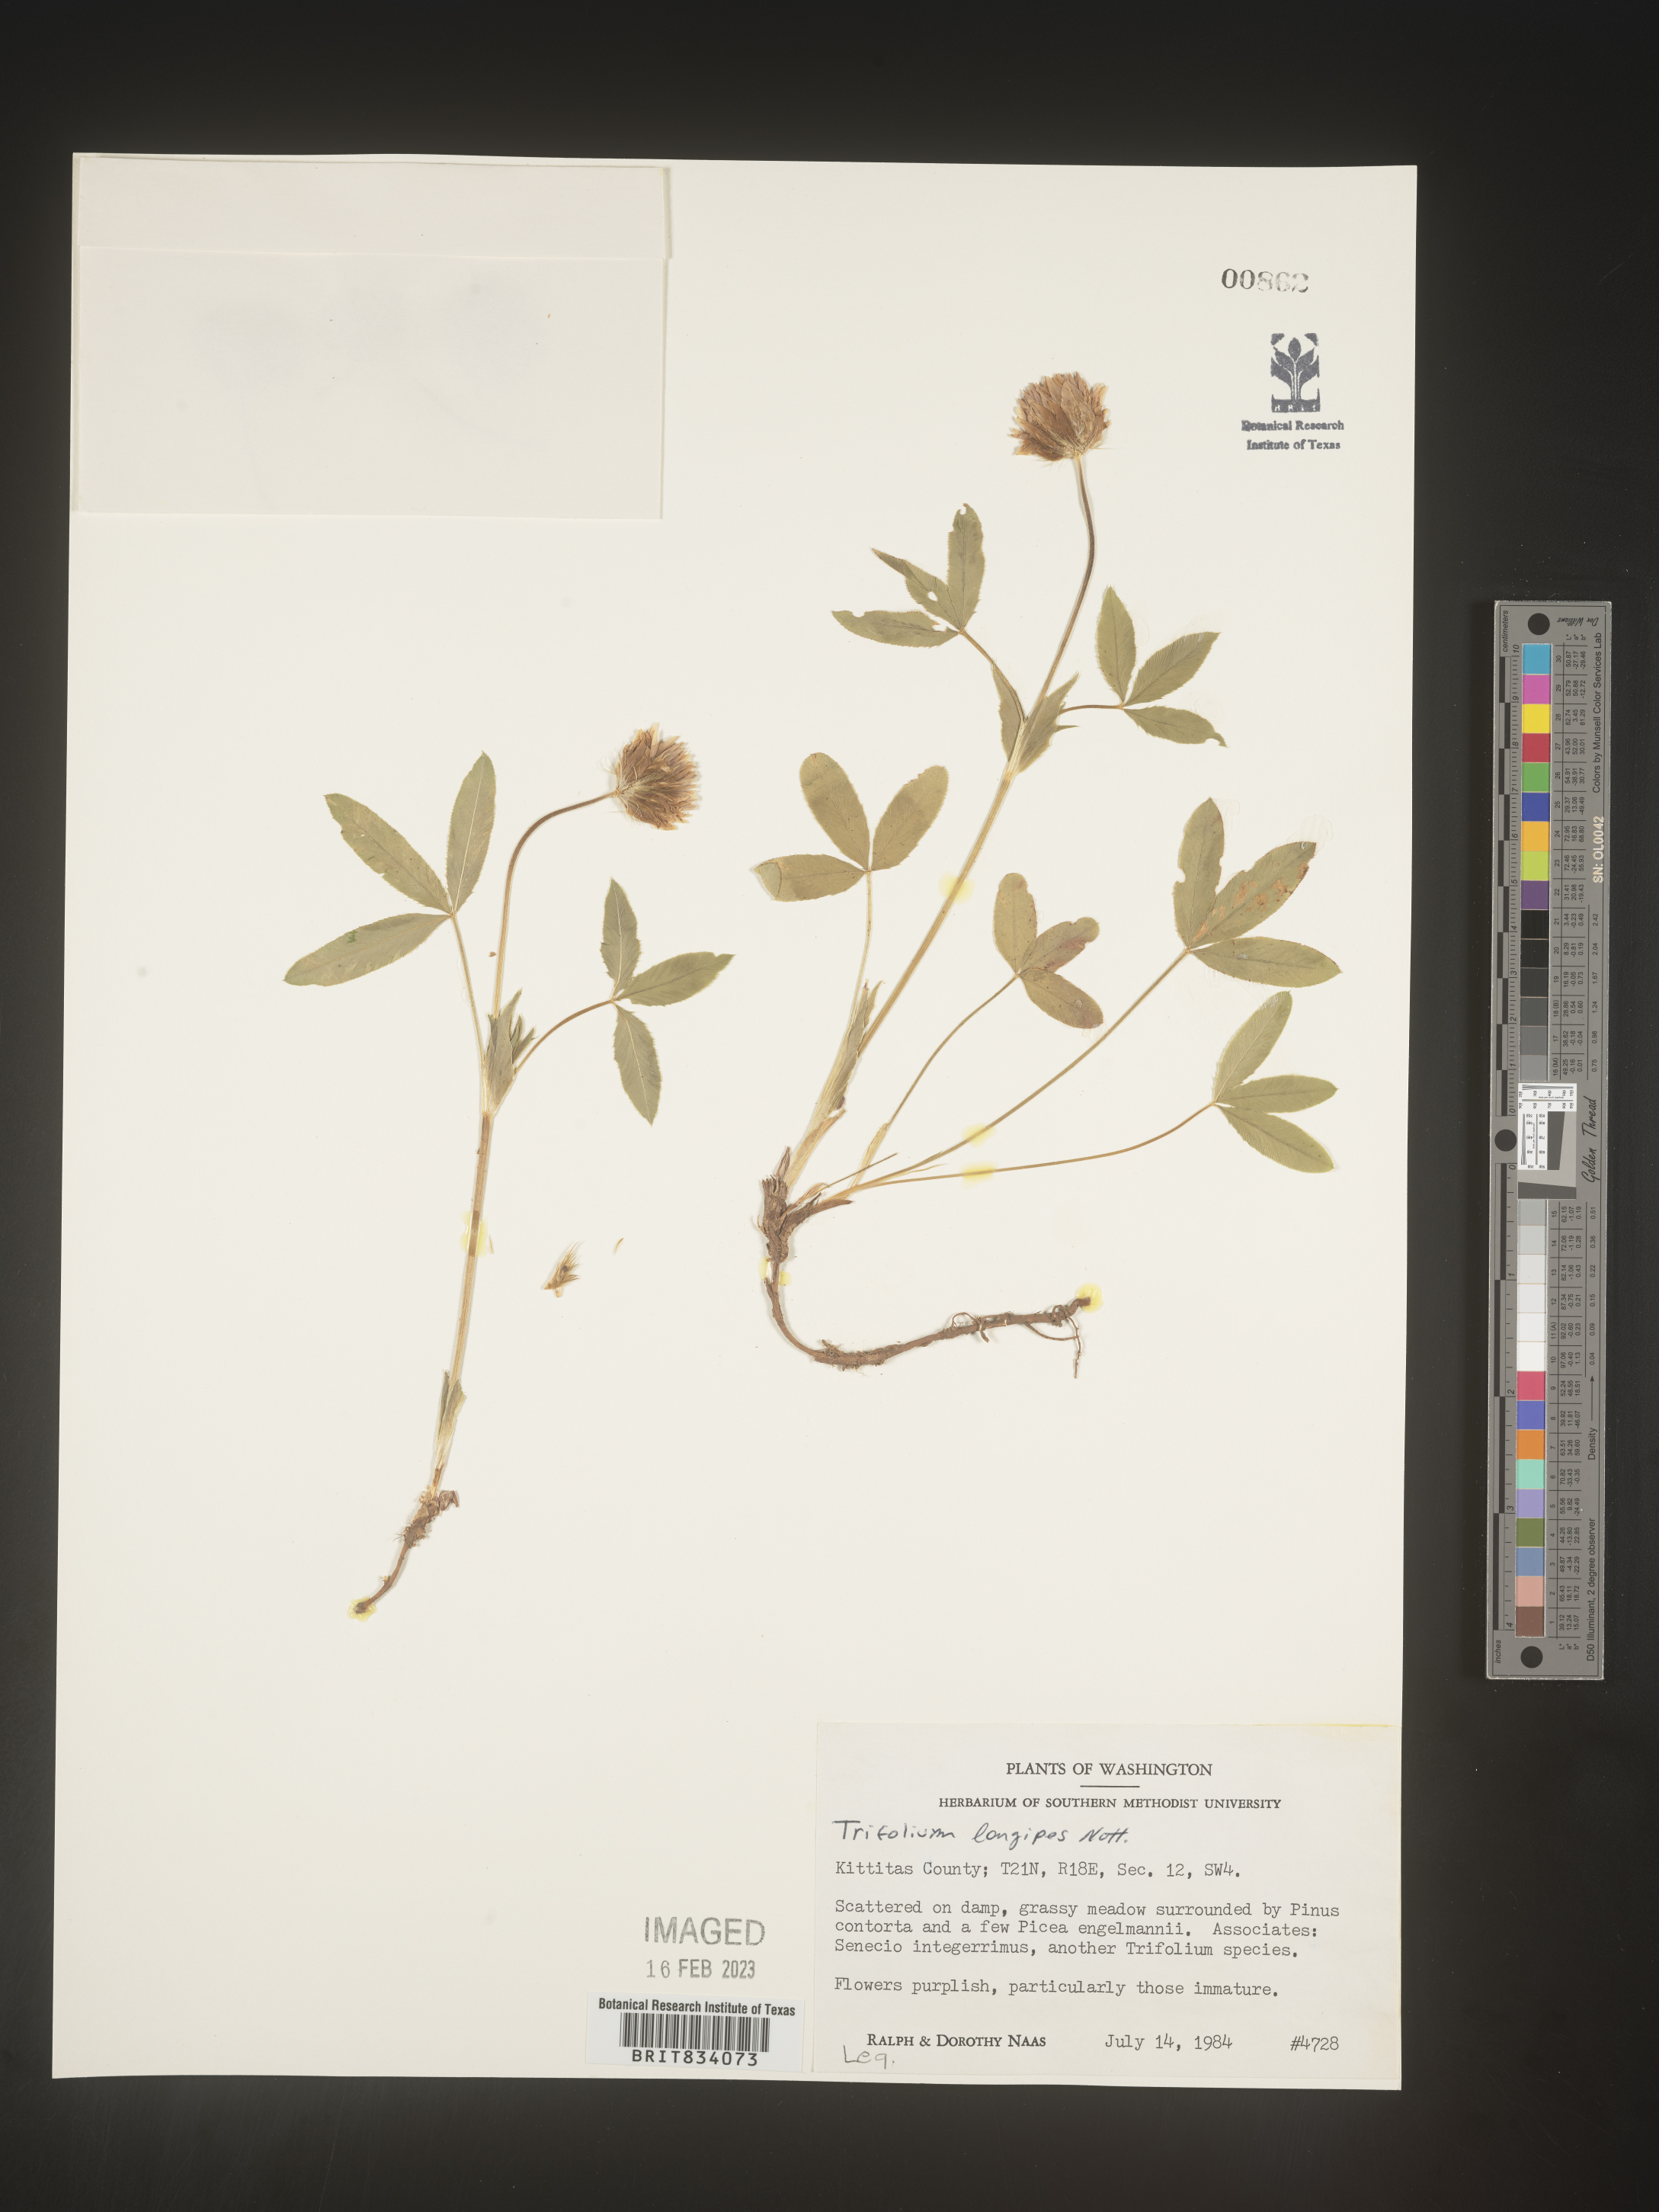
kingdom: Plantae
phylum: Tracheophyta
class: Magnoliopsida
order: Fabales
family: Fabaceae
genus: Trifolium
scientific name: Trifolium
